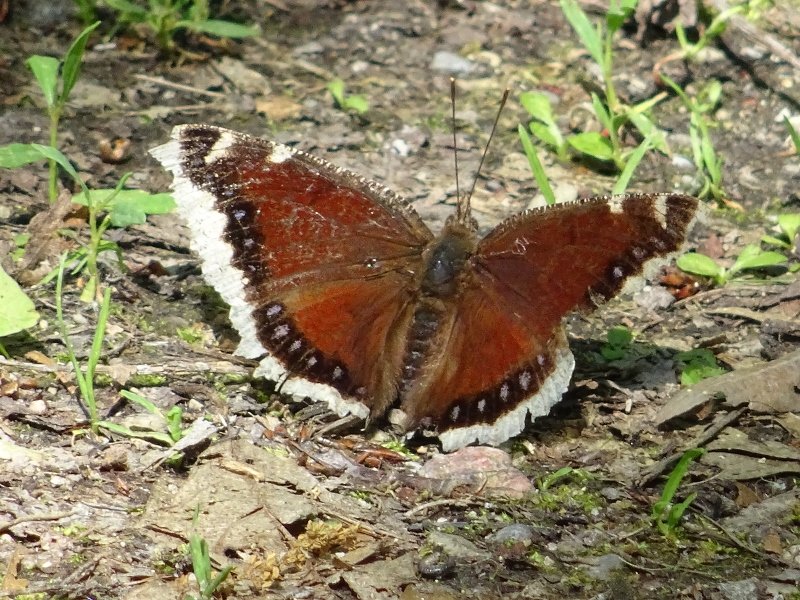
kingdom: Animalia
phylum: Arthropoda
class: Insecta
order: Lepidoptera
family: Nymphalidae
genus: Nymphalis
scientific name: Nymphalis antiopa
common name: Mourning Cloak
